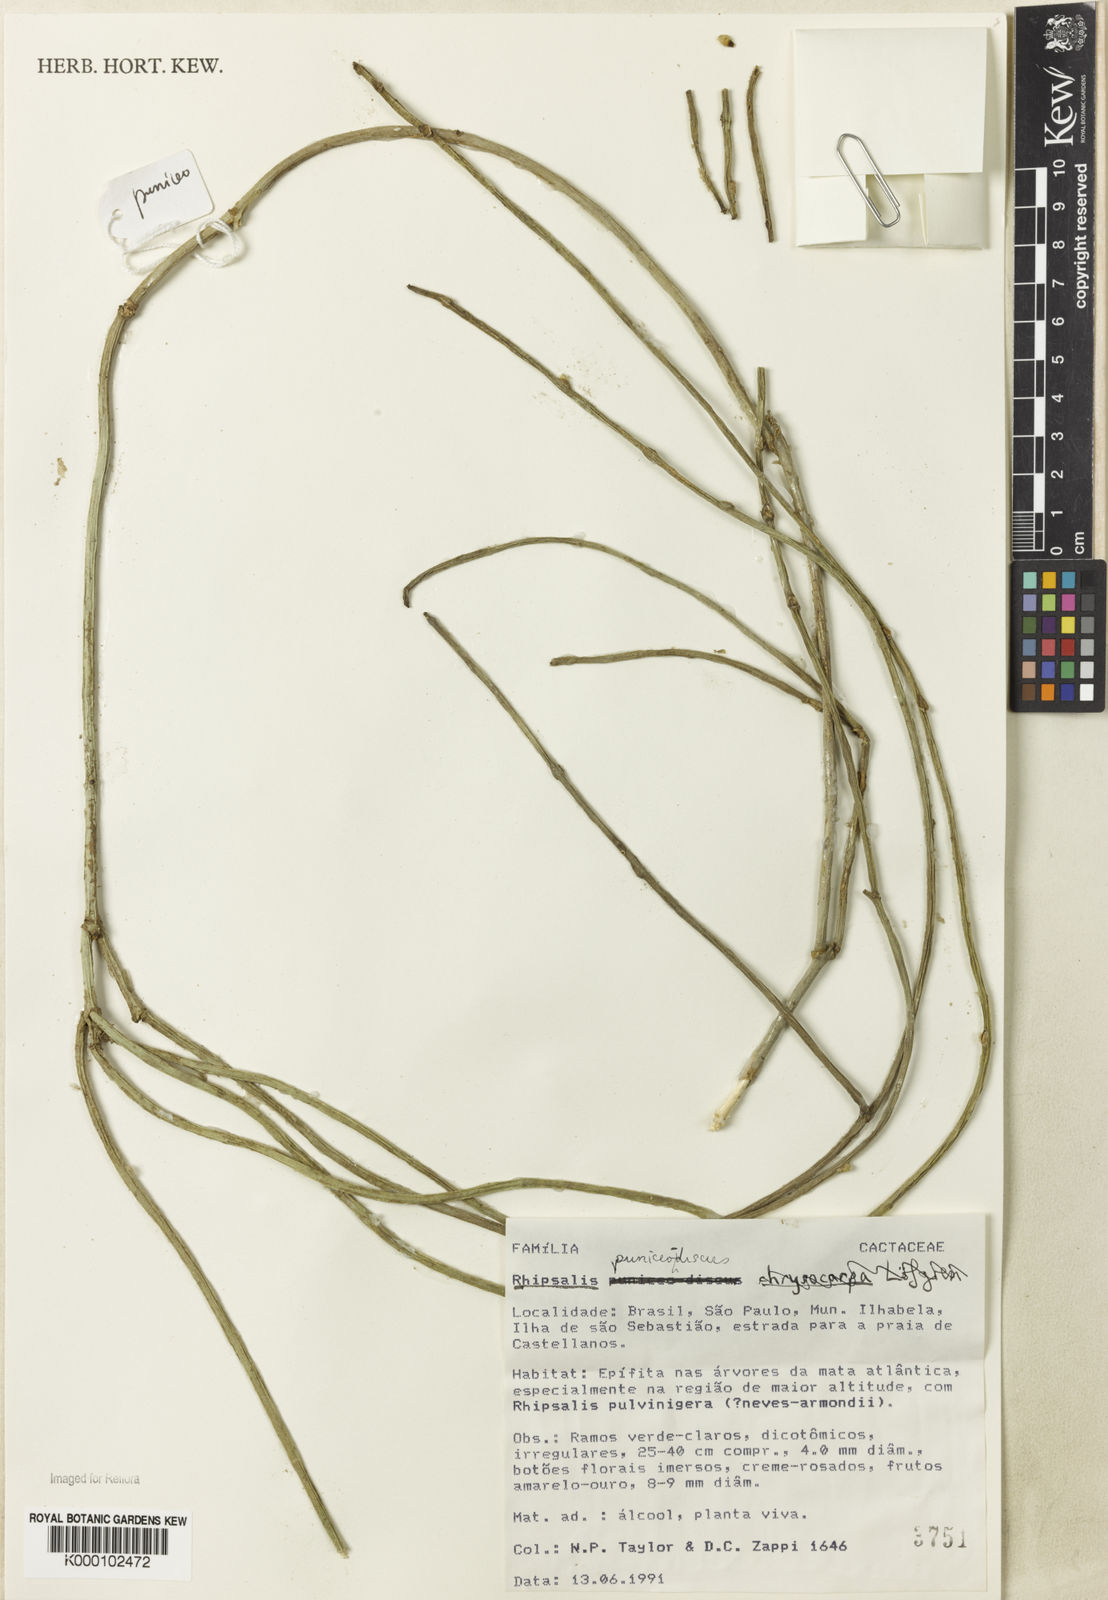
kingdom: Plantae
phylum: Tracheophyta
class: Magnoliopsida
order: Caryophyllales
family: Cactaceae
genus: Rhipsalis
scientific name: Rhipsalis puniceodiscus
